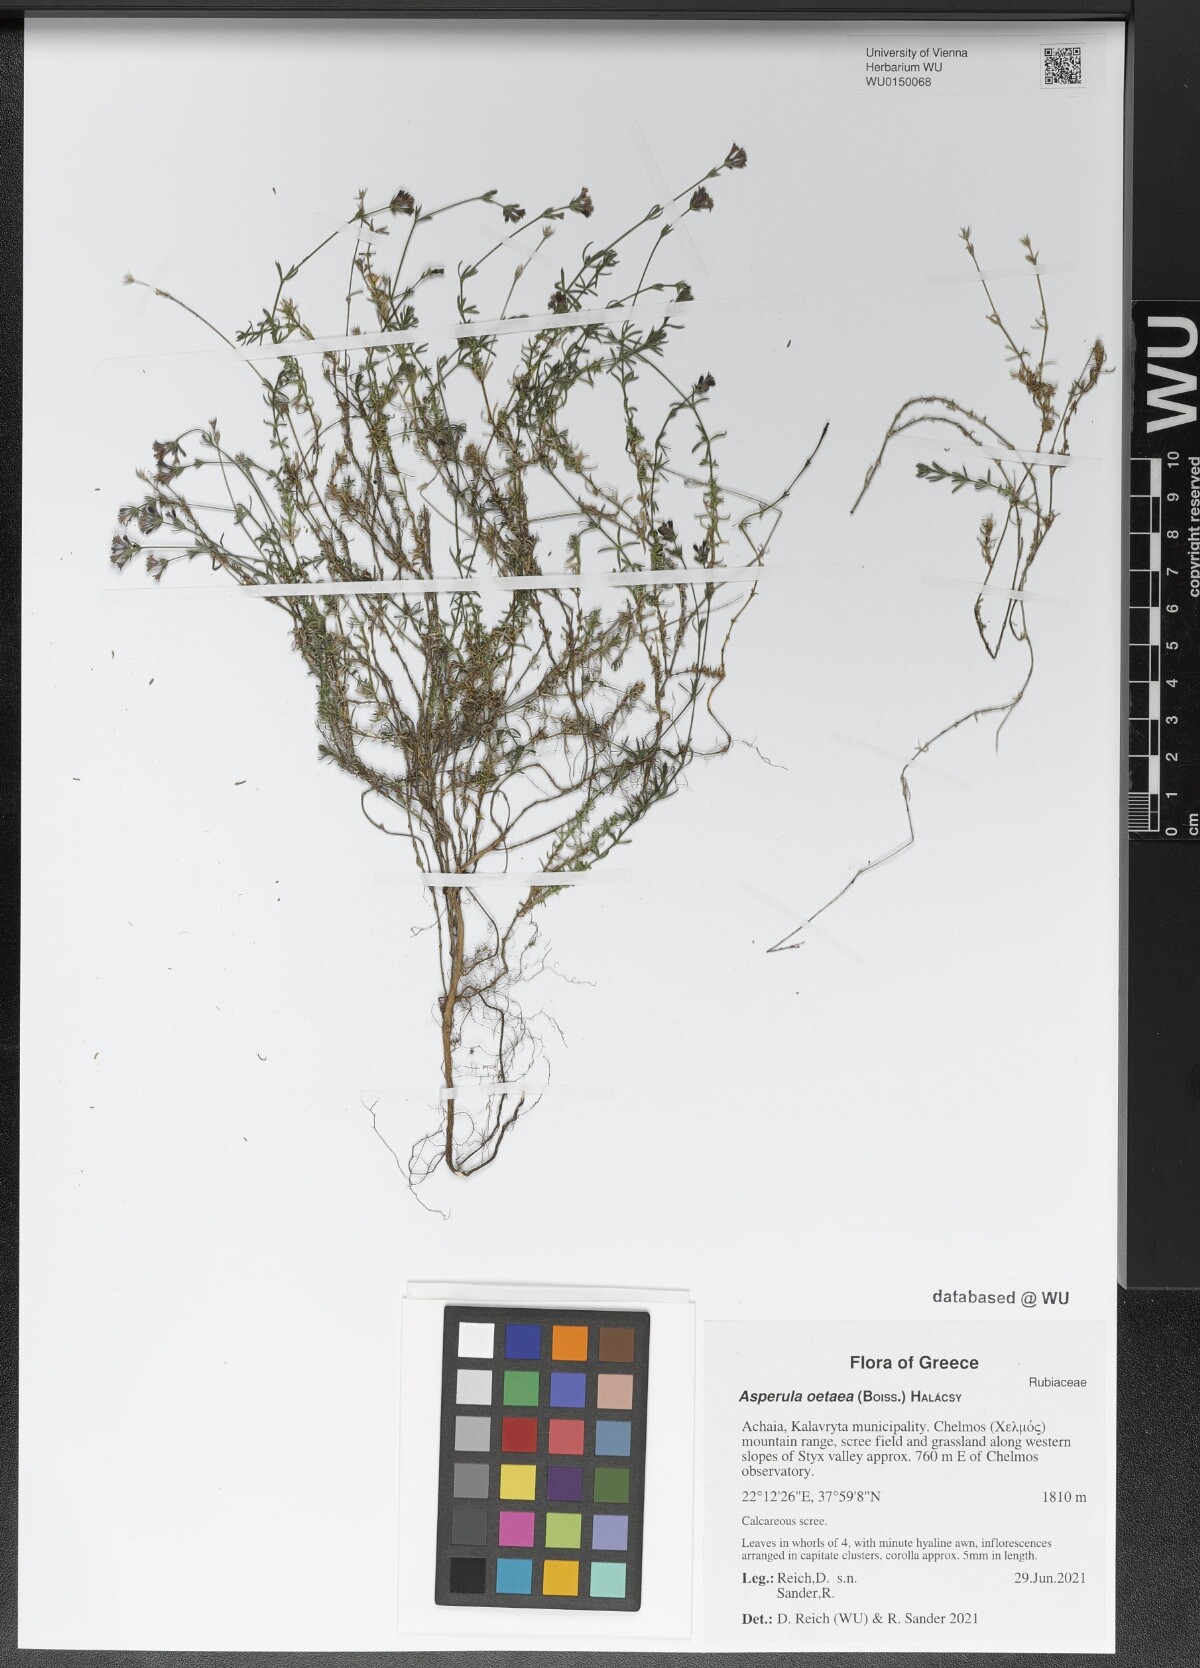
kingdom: Plantae
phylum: Tracheophyta
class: Magnoliopsida
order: Gentianales
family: Rubiaceae
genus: Cynanchica
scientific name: Cynanchica oetaea
